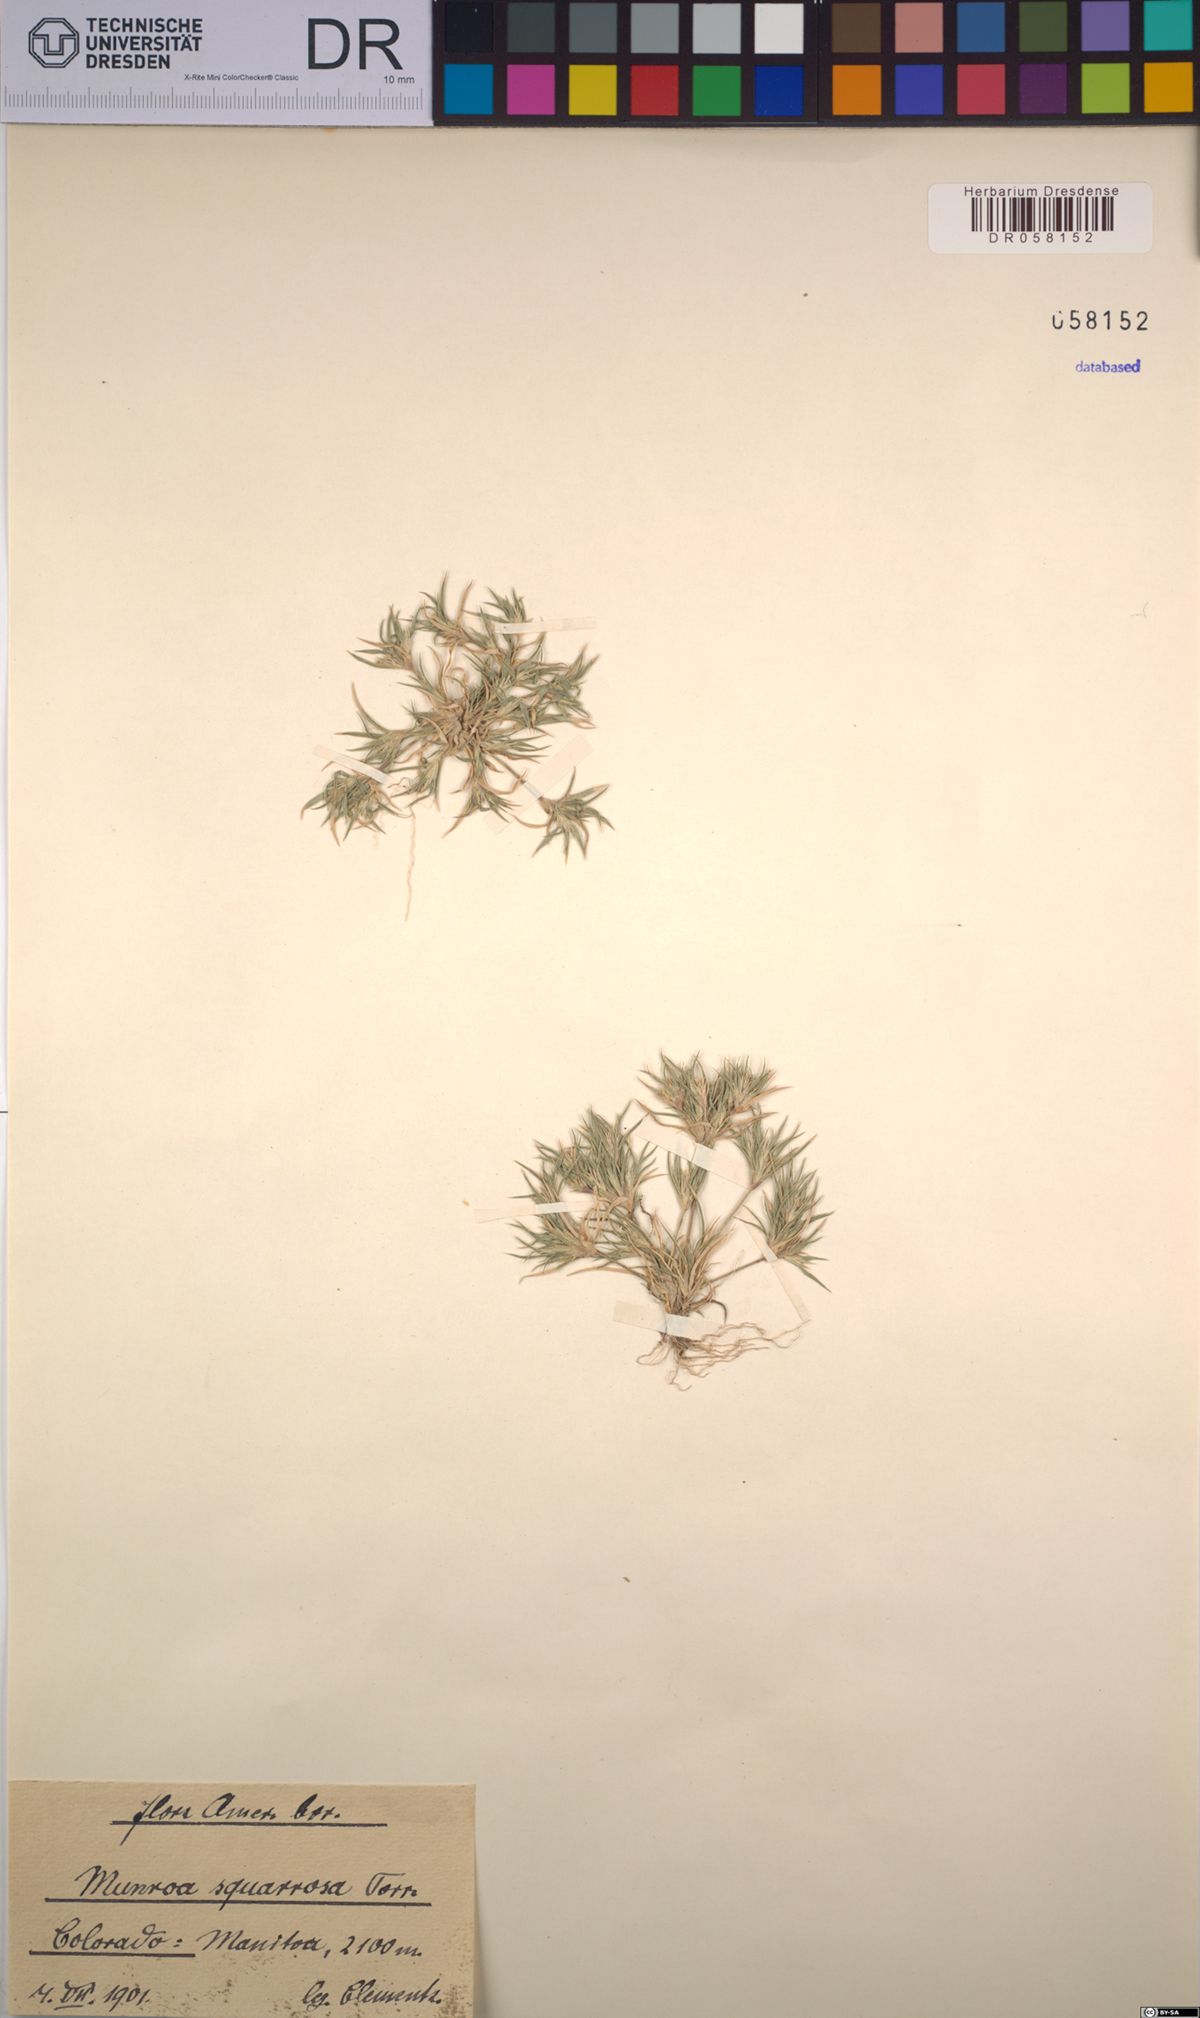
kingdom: Plantae
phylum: Tracheophyta
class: Liliopsida
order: Poales
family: Poaceae
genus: Munroa
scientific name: Munroa squarrosa
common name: False buffalo grass
